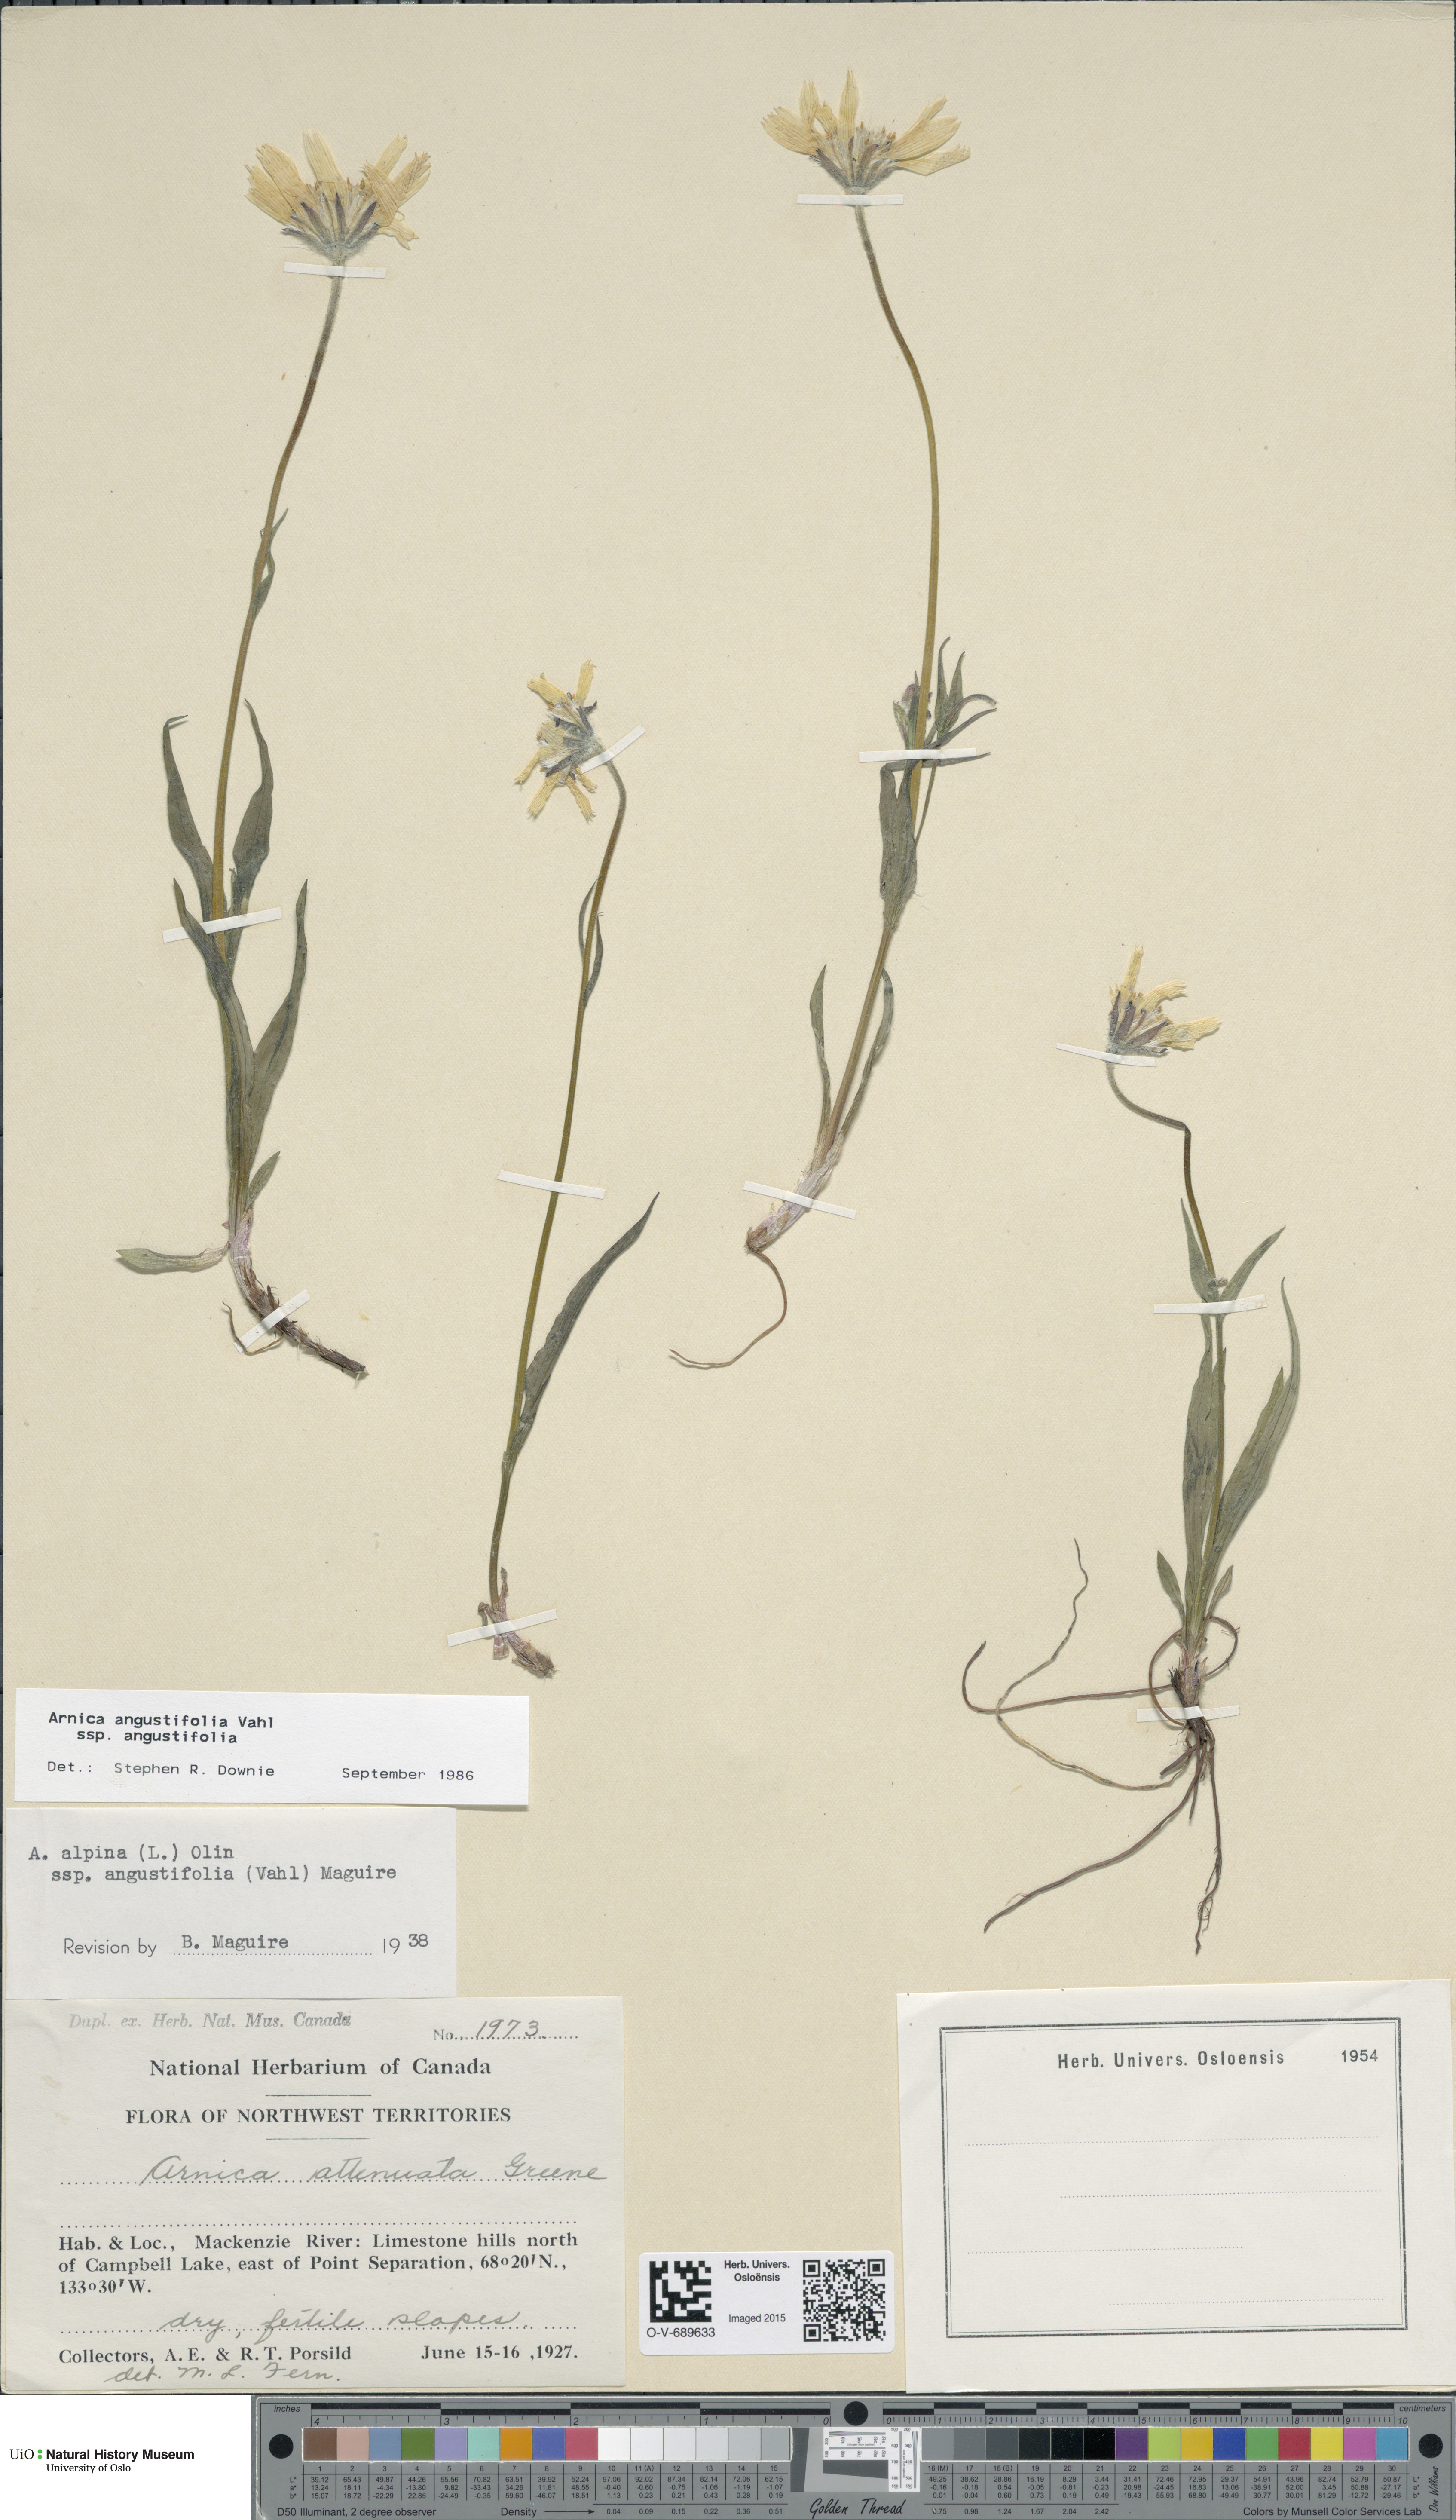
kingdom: Plantae
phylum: Tracheophyta
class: Magnoliopsida
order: Asterales
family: Asteraceae
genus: Arnica
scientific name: Arnica angustifolia
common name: Arctic arnica
